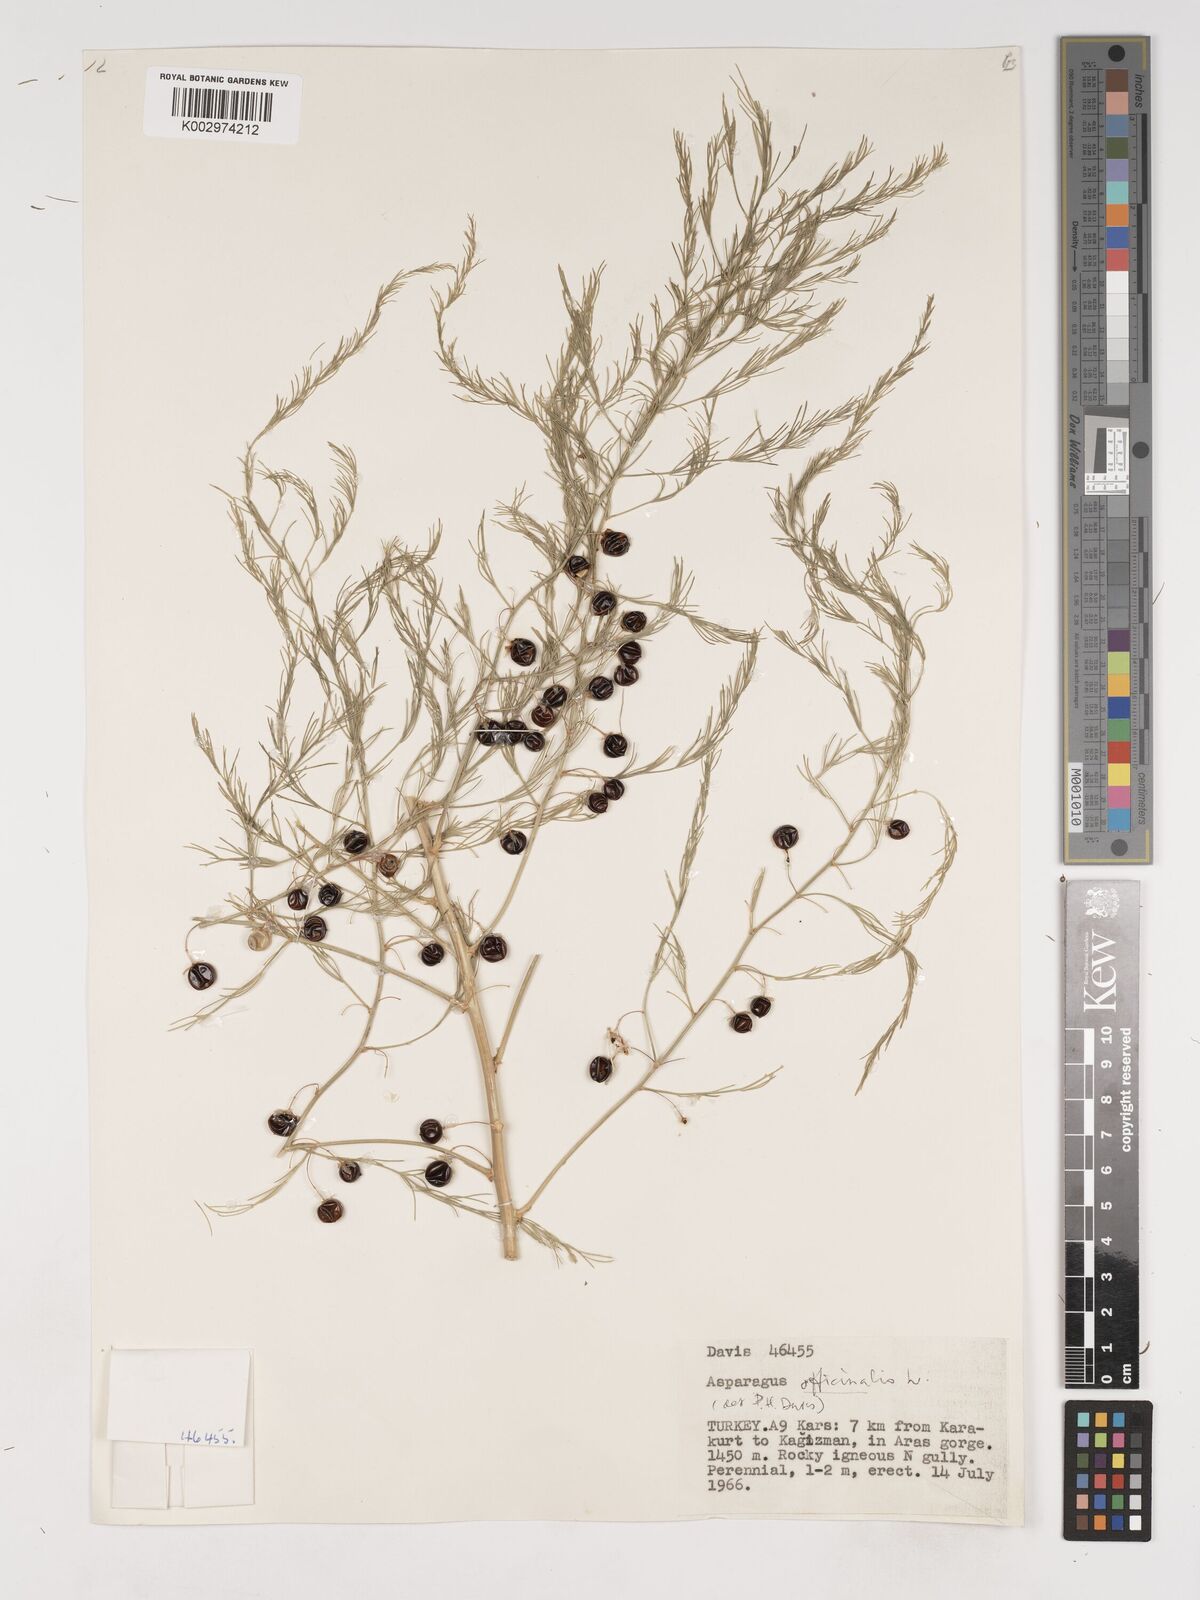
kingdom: Plantae
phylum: Tracheophyta
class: Liliopsida
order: Asparagales
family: Asparagaceae
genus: Asparagus
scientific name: Asparagus officinalis
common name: Garden asparagus
